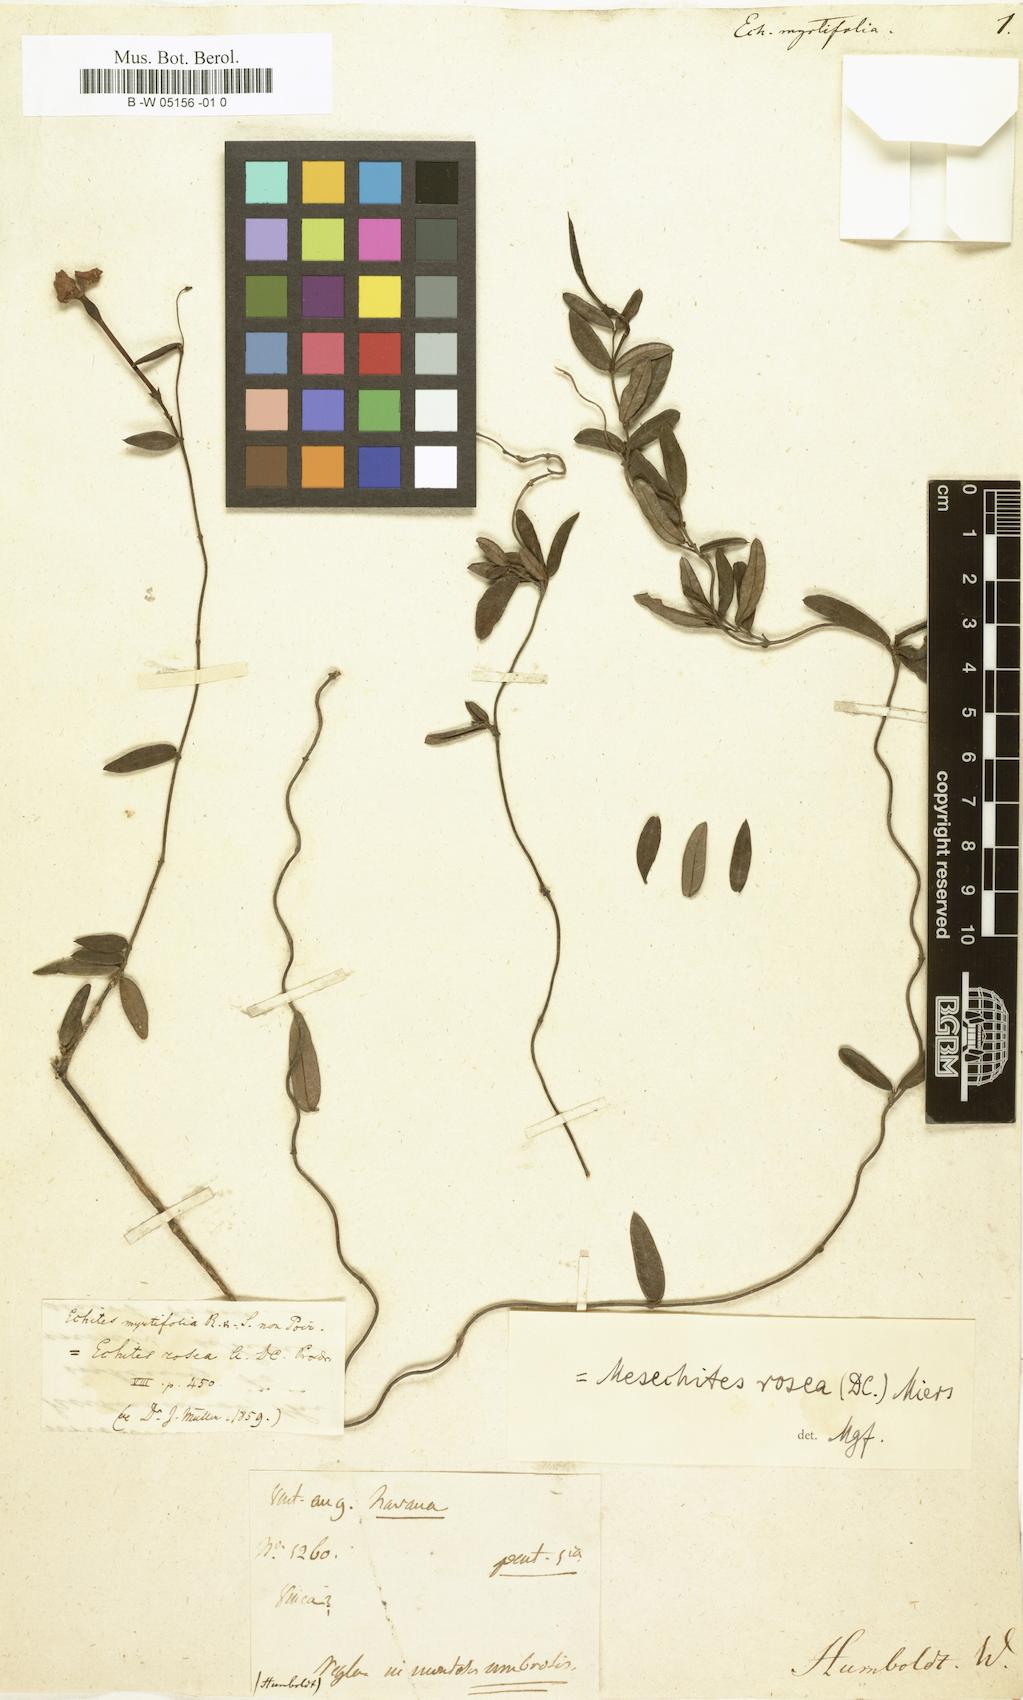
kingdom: Plantae
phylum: Tracheophyta
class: Magnoliopsida
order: Gentianales
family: Apocynaceae
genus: Mesechites
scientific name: Mesechites roseus
